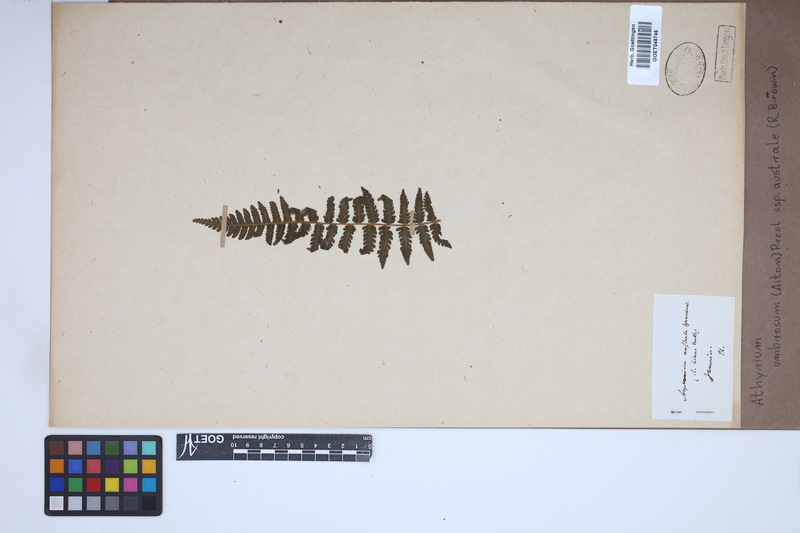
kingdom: Plantae
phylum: Tracheophyta
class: Polypodiopsida
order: Polypodiales
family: Athyriaceae
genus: Diplazium
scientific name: Diplazium australe
